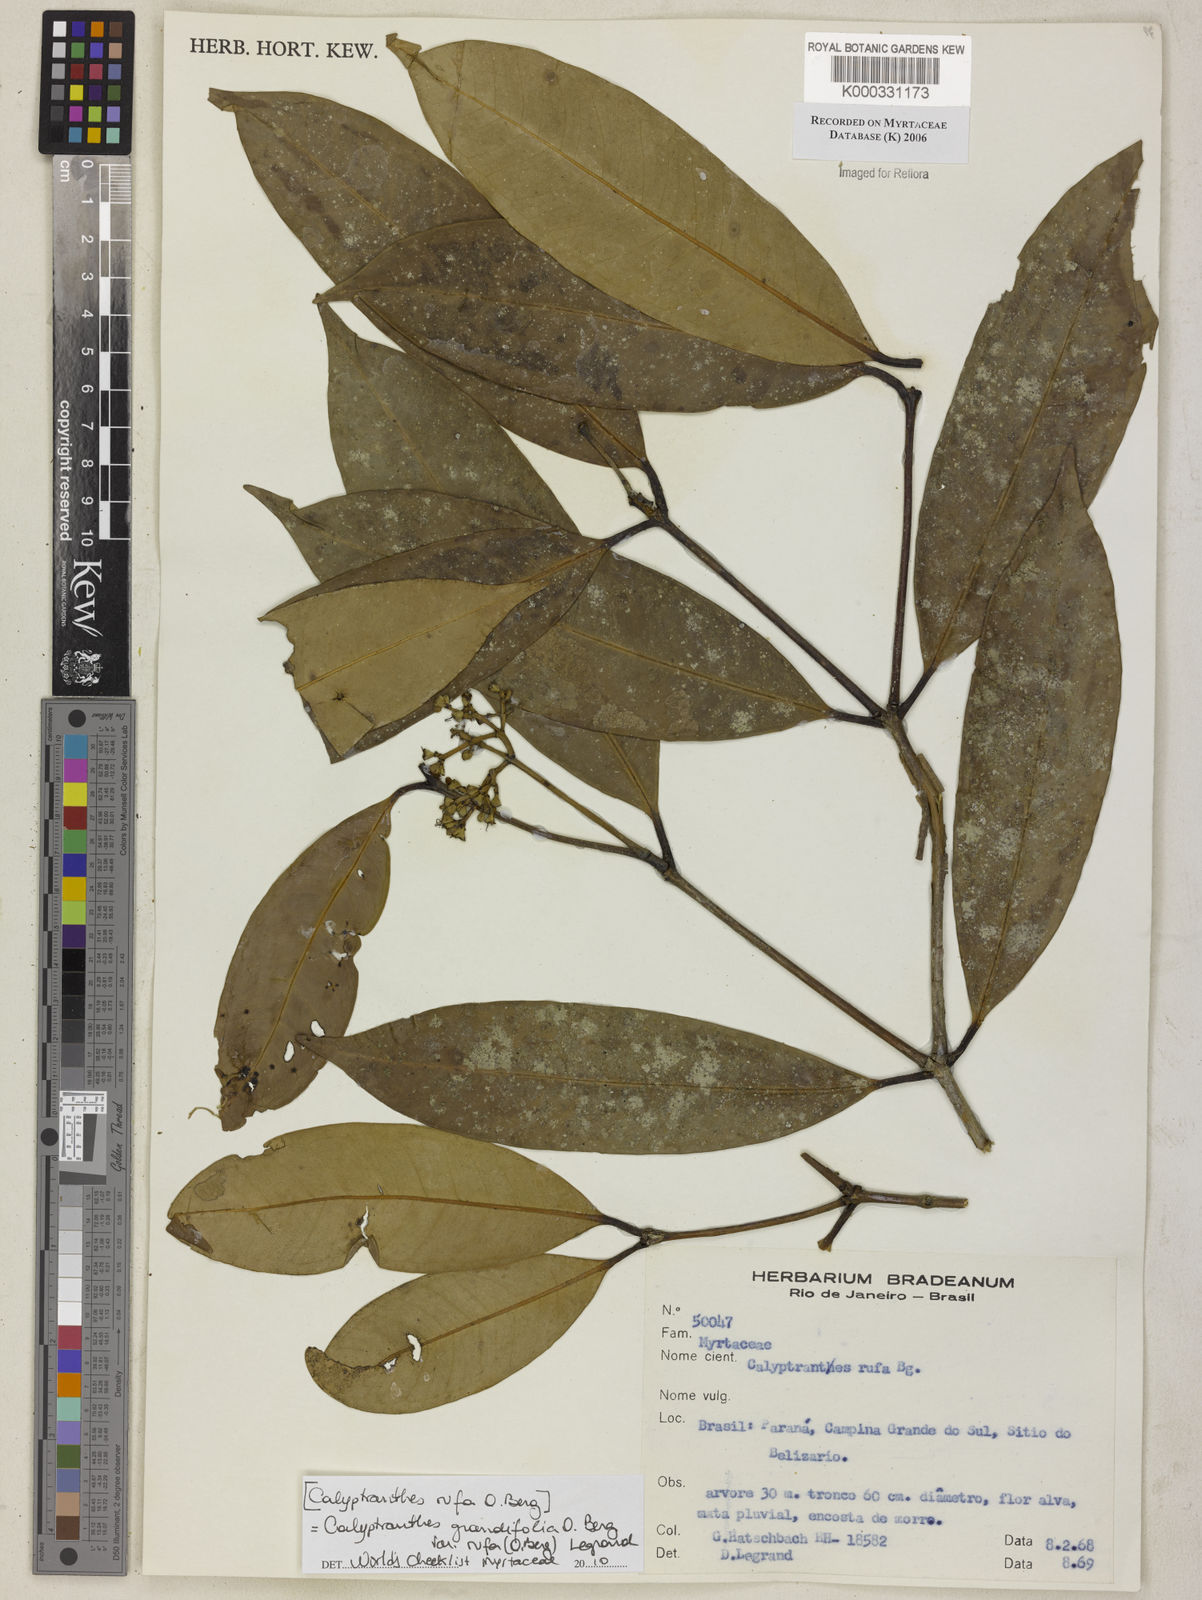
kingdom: Plantae
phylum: Tracheophyta
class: Magnoliopsida
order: Myrtales
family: Myrtaceae
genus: Calyptranthes
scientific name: Calyptranthes grandifolia
